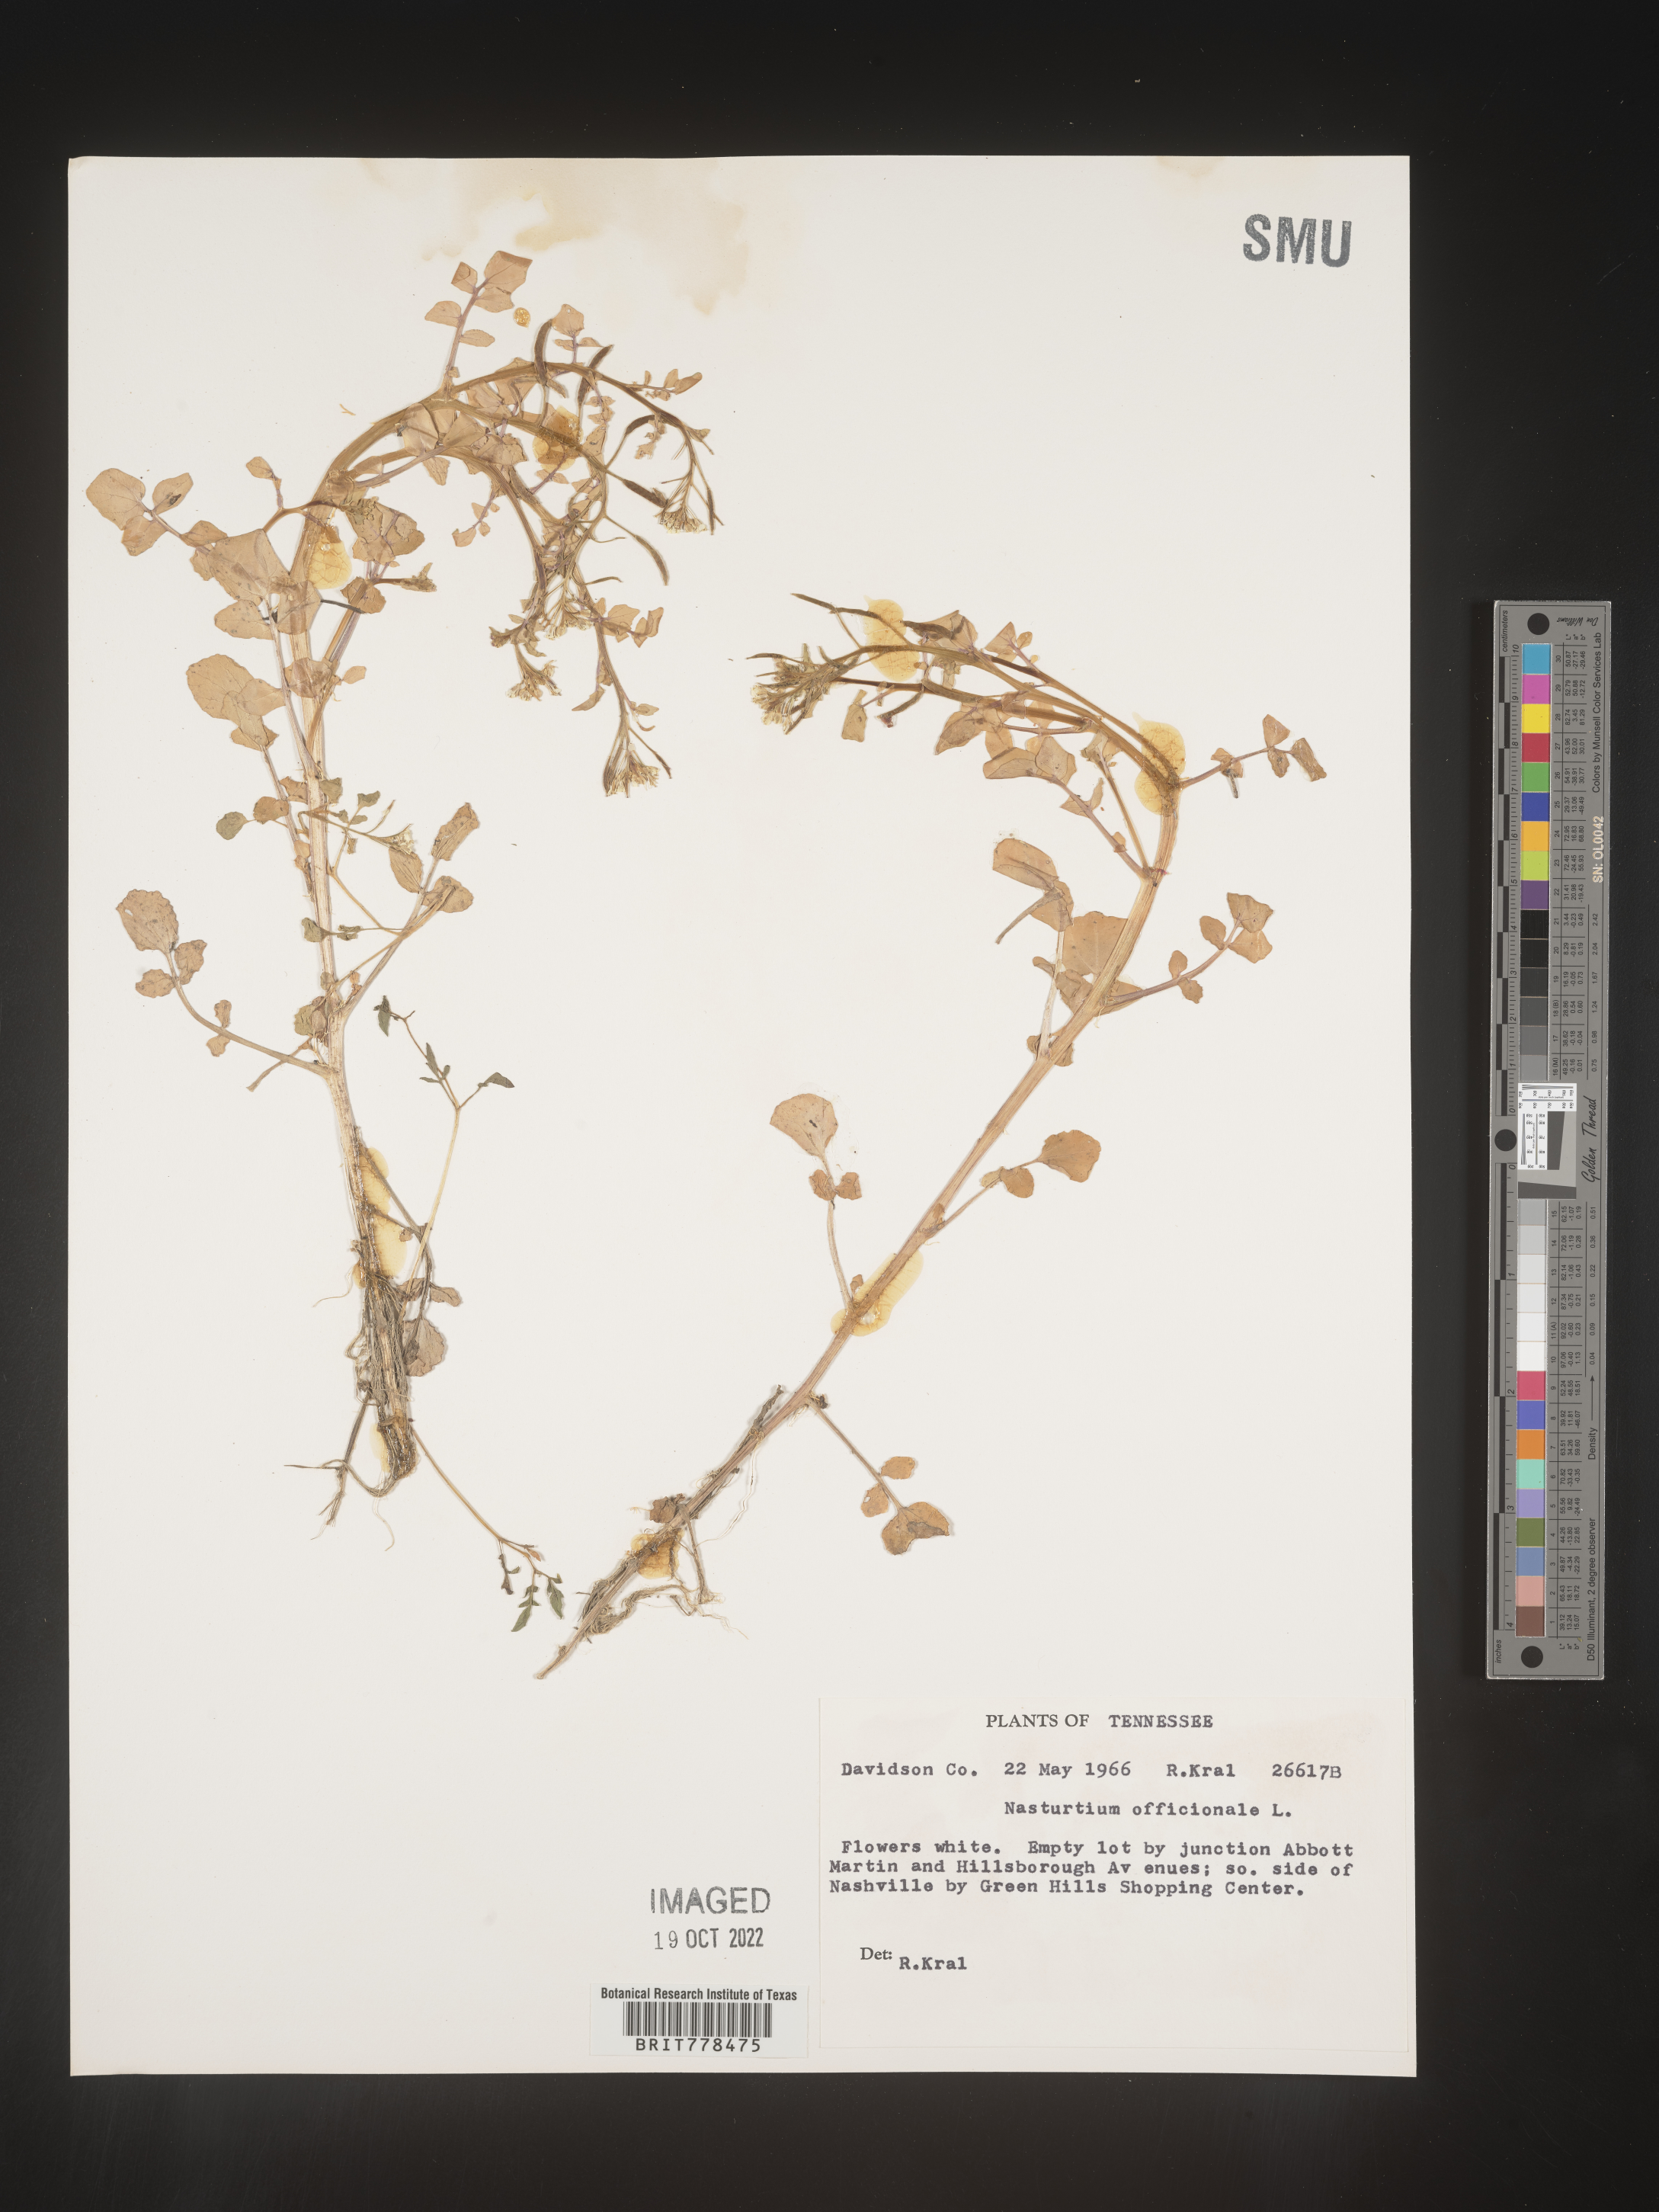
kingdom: Plantae
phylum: Tracheophyta
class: Magnoliopsida
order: Brassicales
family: Brassicaceae
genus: Nasturtium
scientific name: Nasturtium officinale
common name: Watercress
